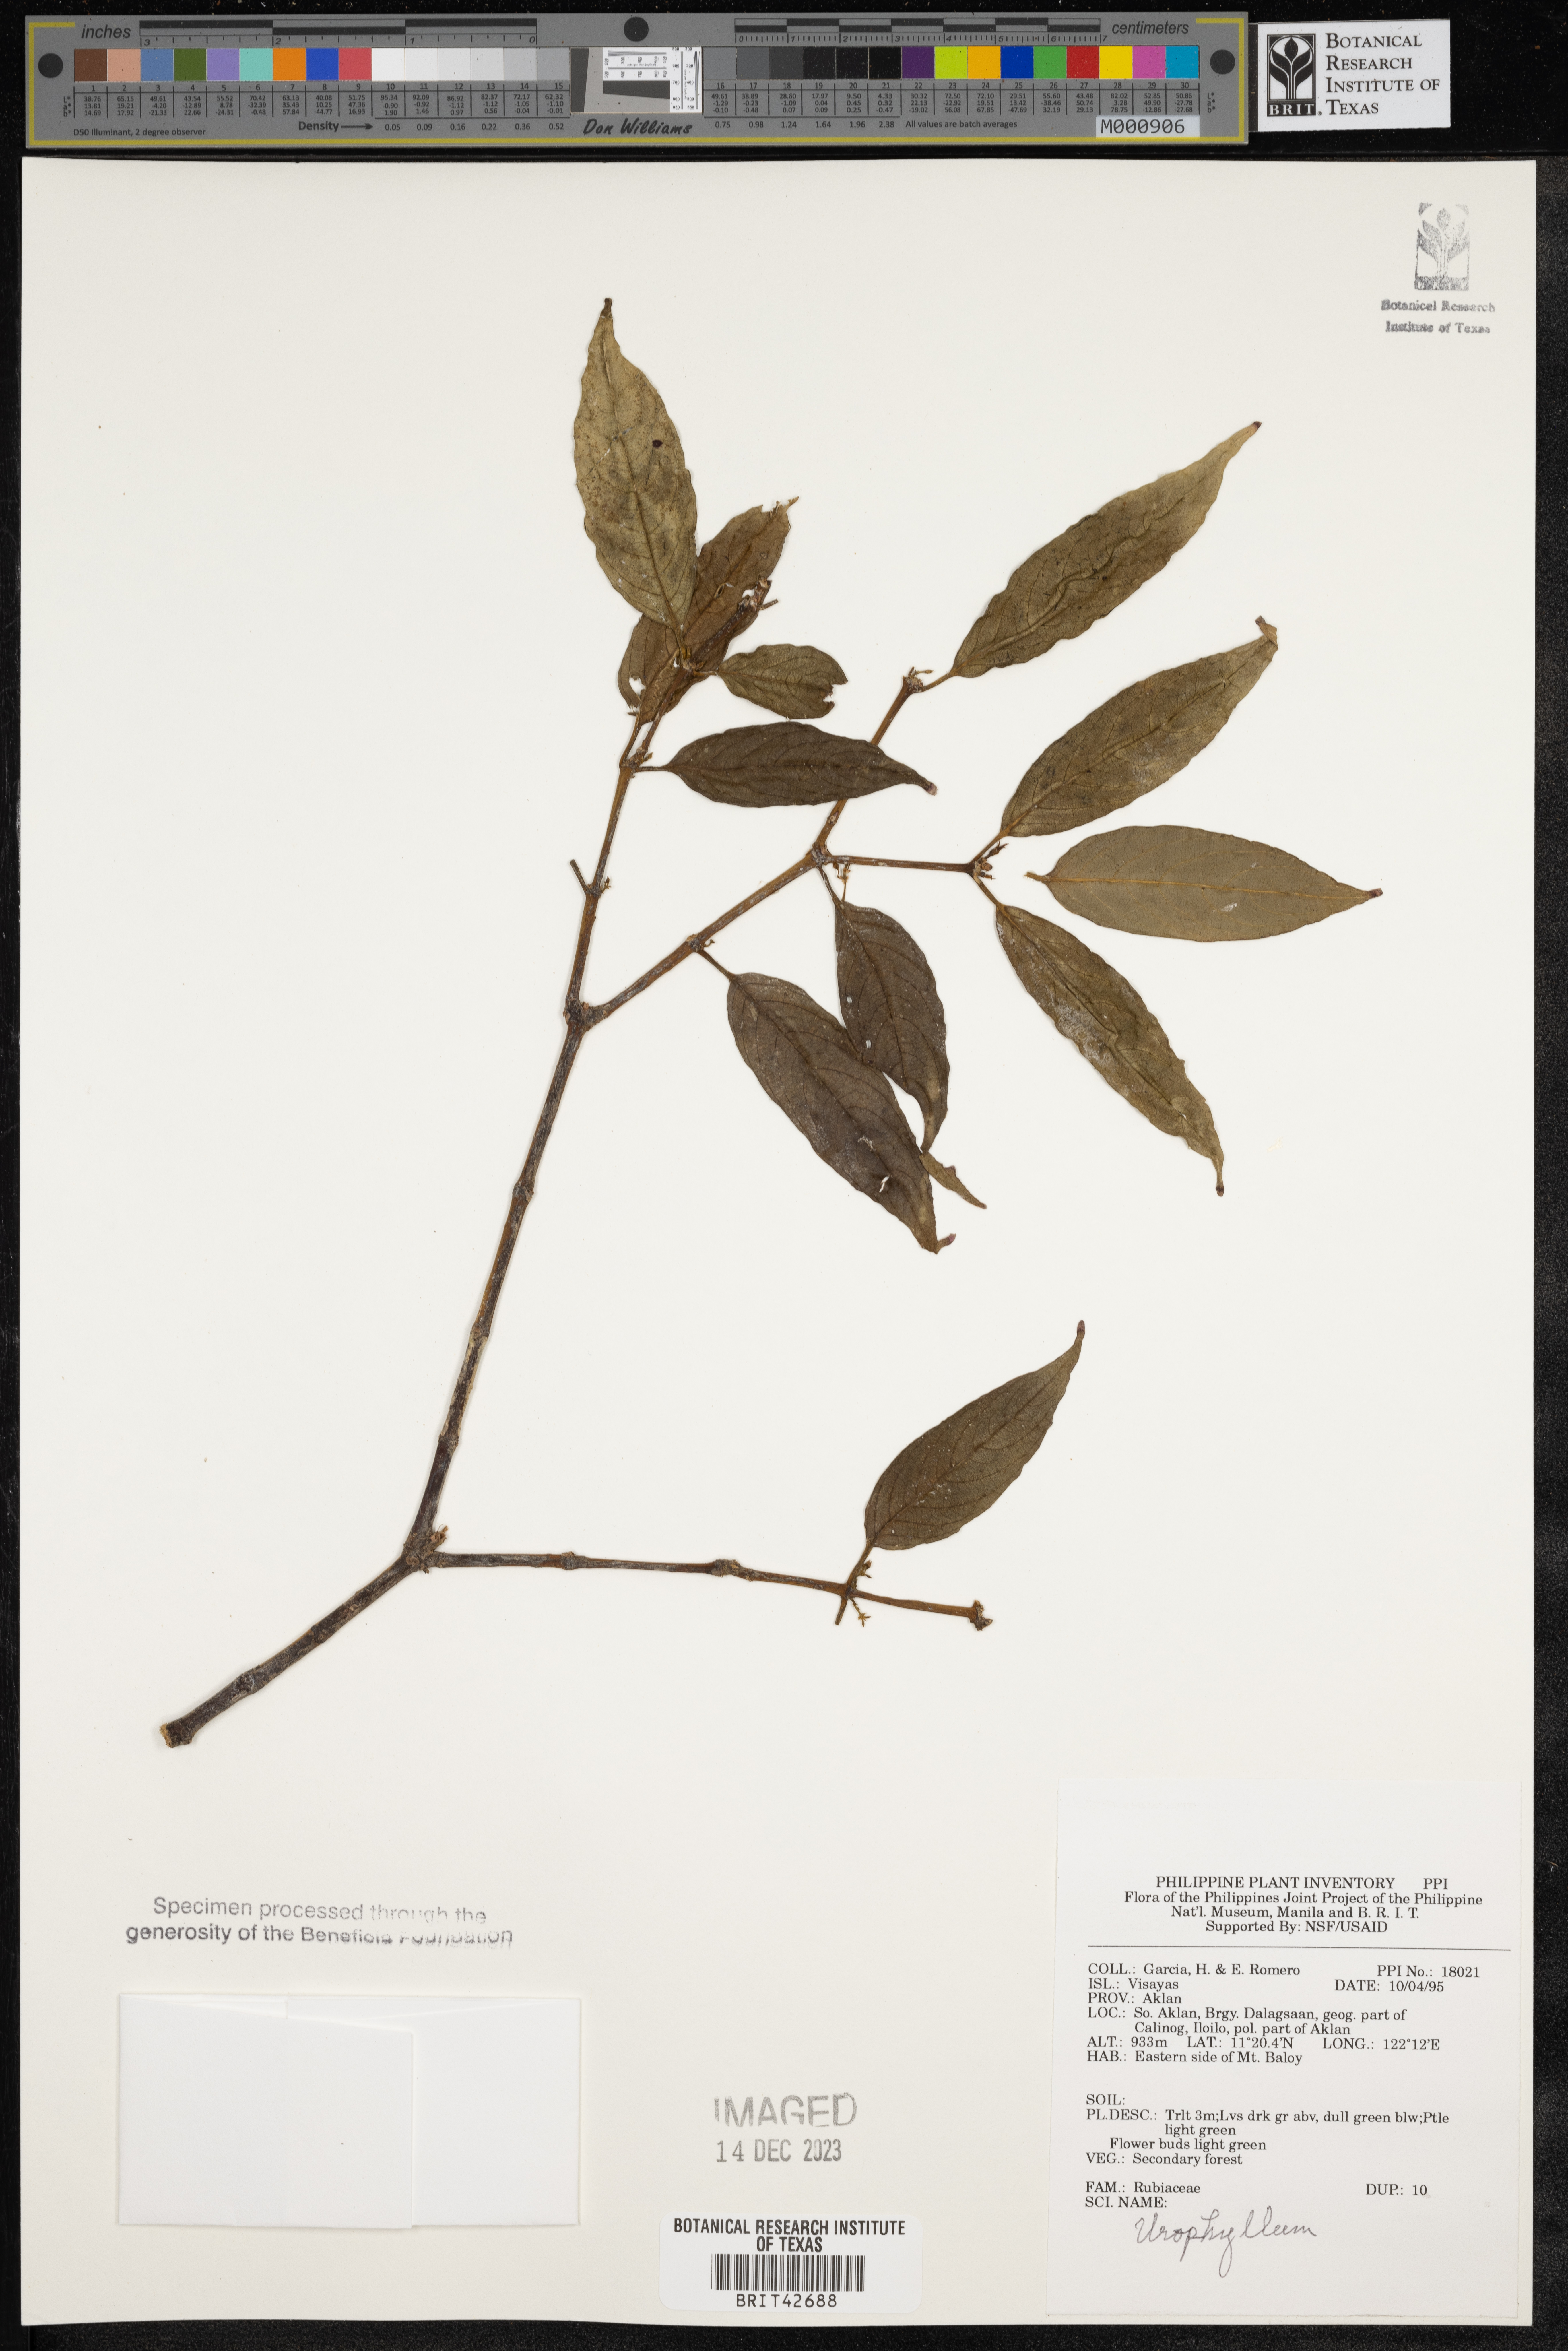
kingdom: Plantae
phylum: Tracheophyta
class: Magnoliopsida
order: Gentianales
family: Rubiaceae
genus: Urophyllum
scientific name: Urophyllum
